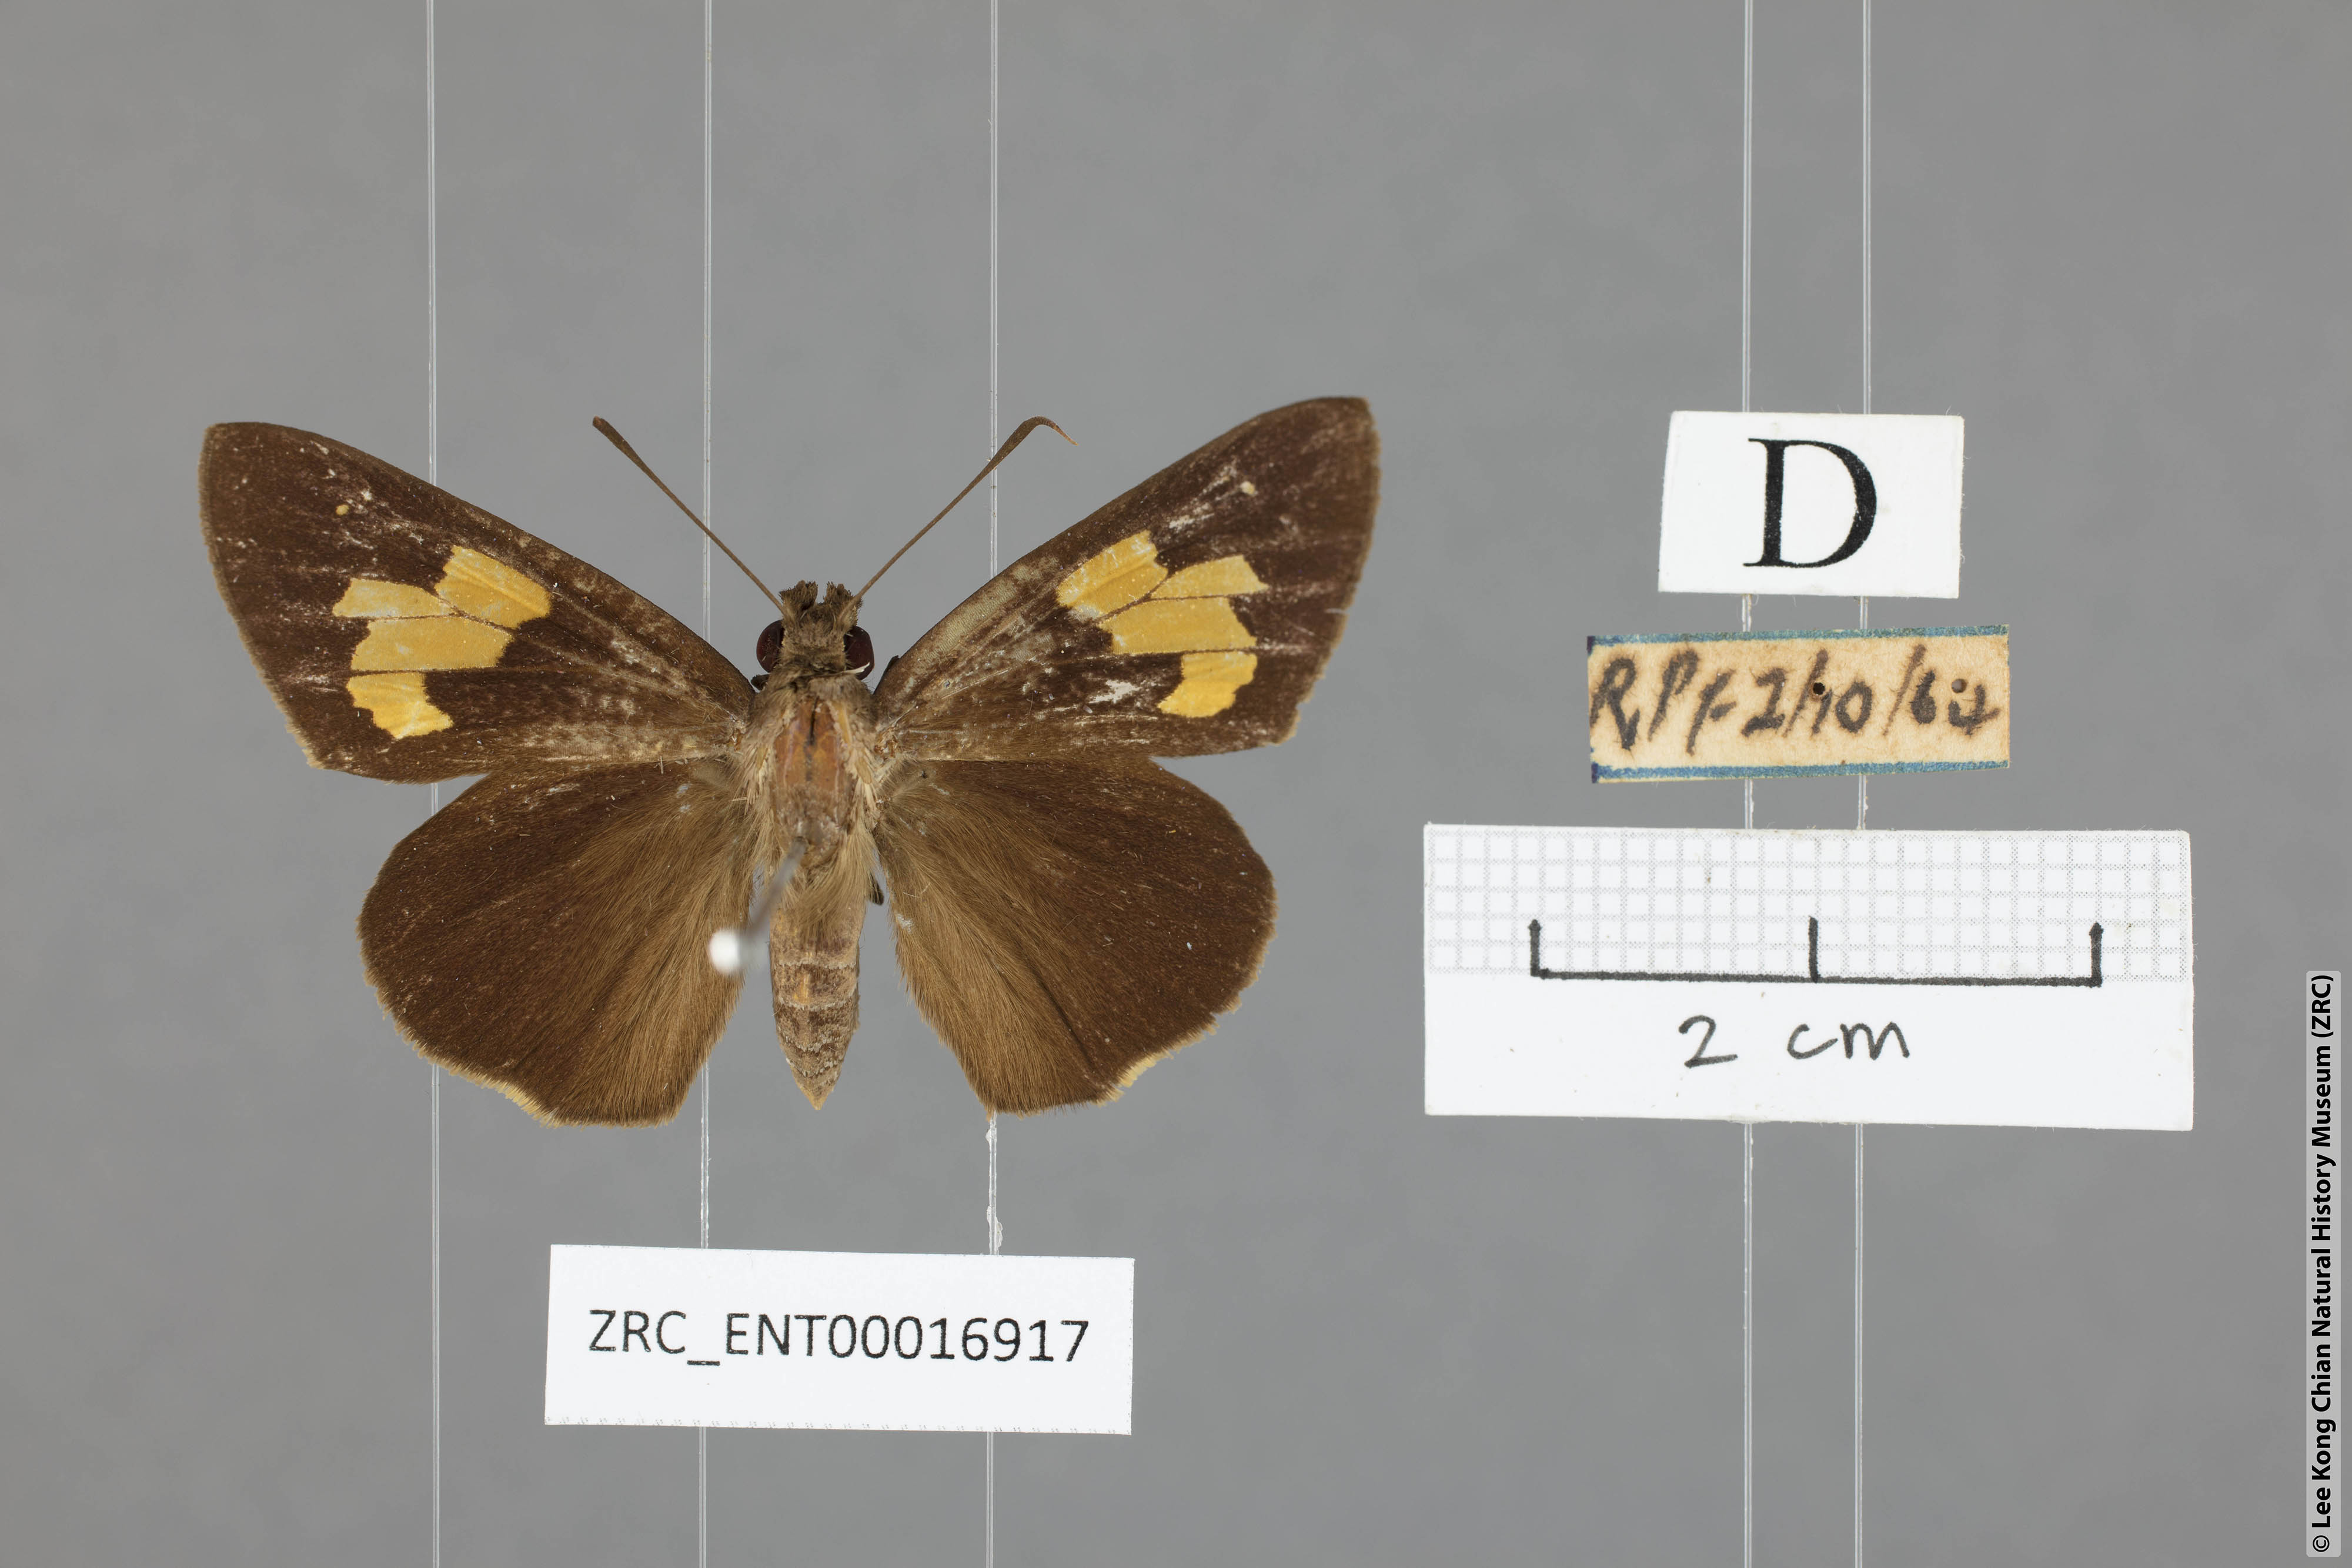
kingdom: Animalia
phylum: Arthropoda
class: Insecta
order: Lepidoptera
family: Hesperiidae
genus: Erionota
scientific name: Erionota
